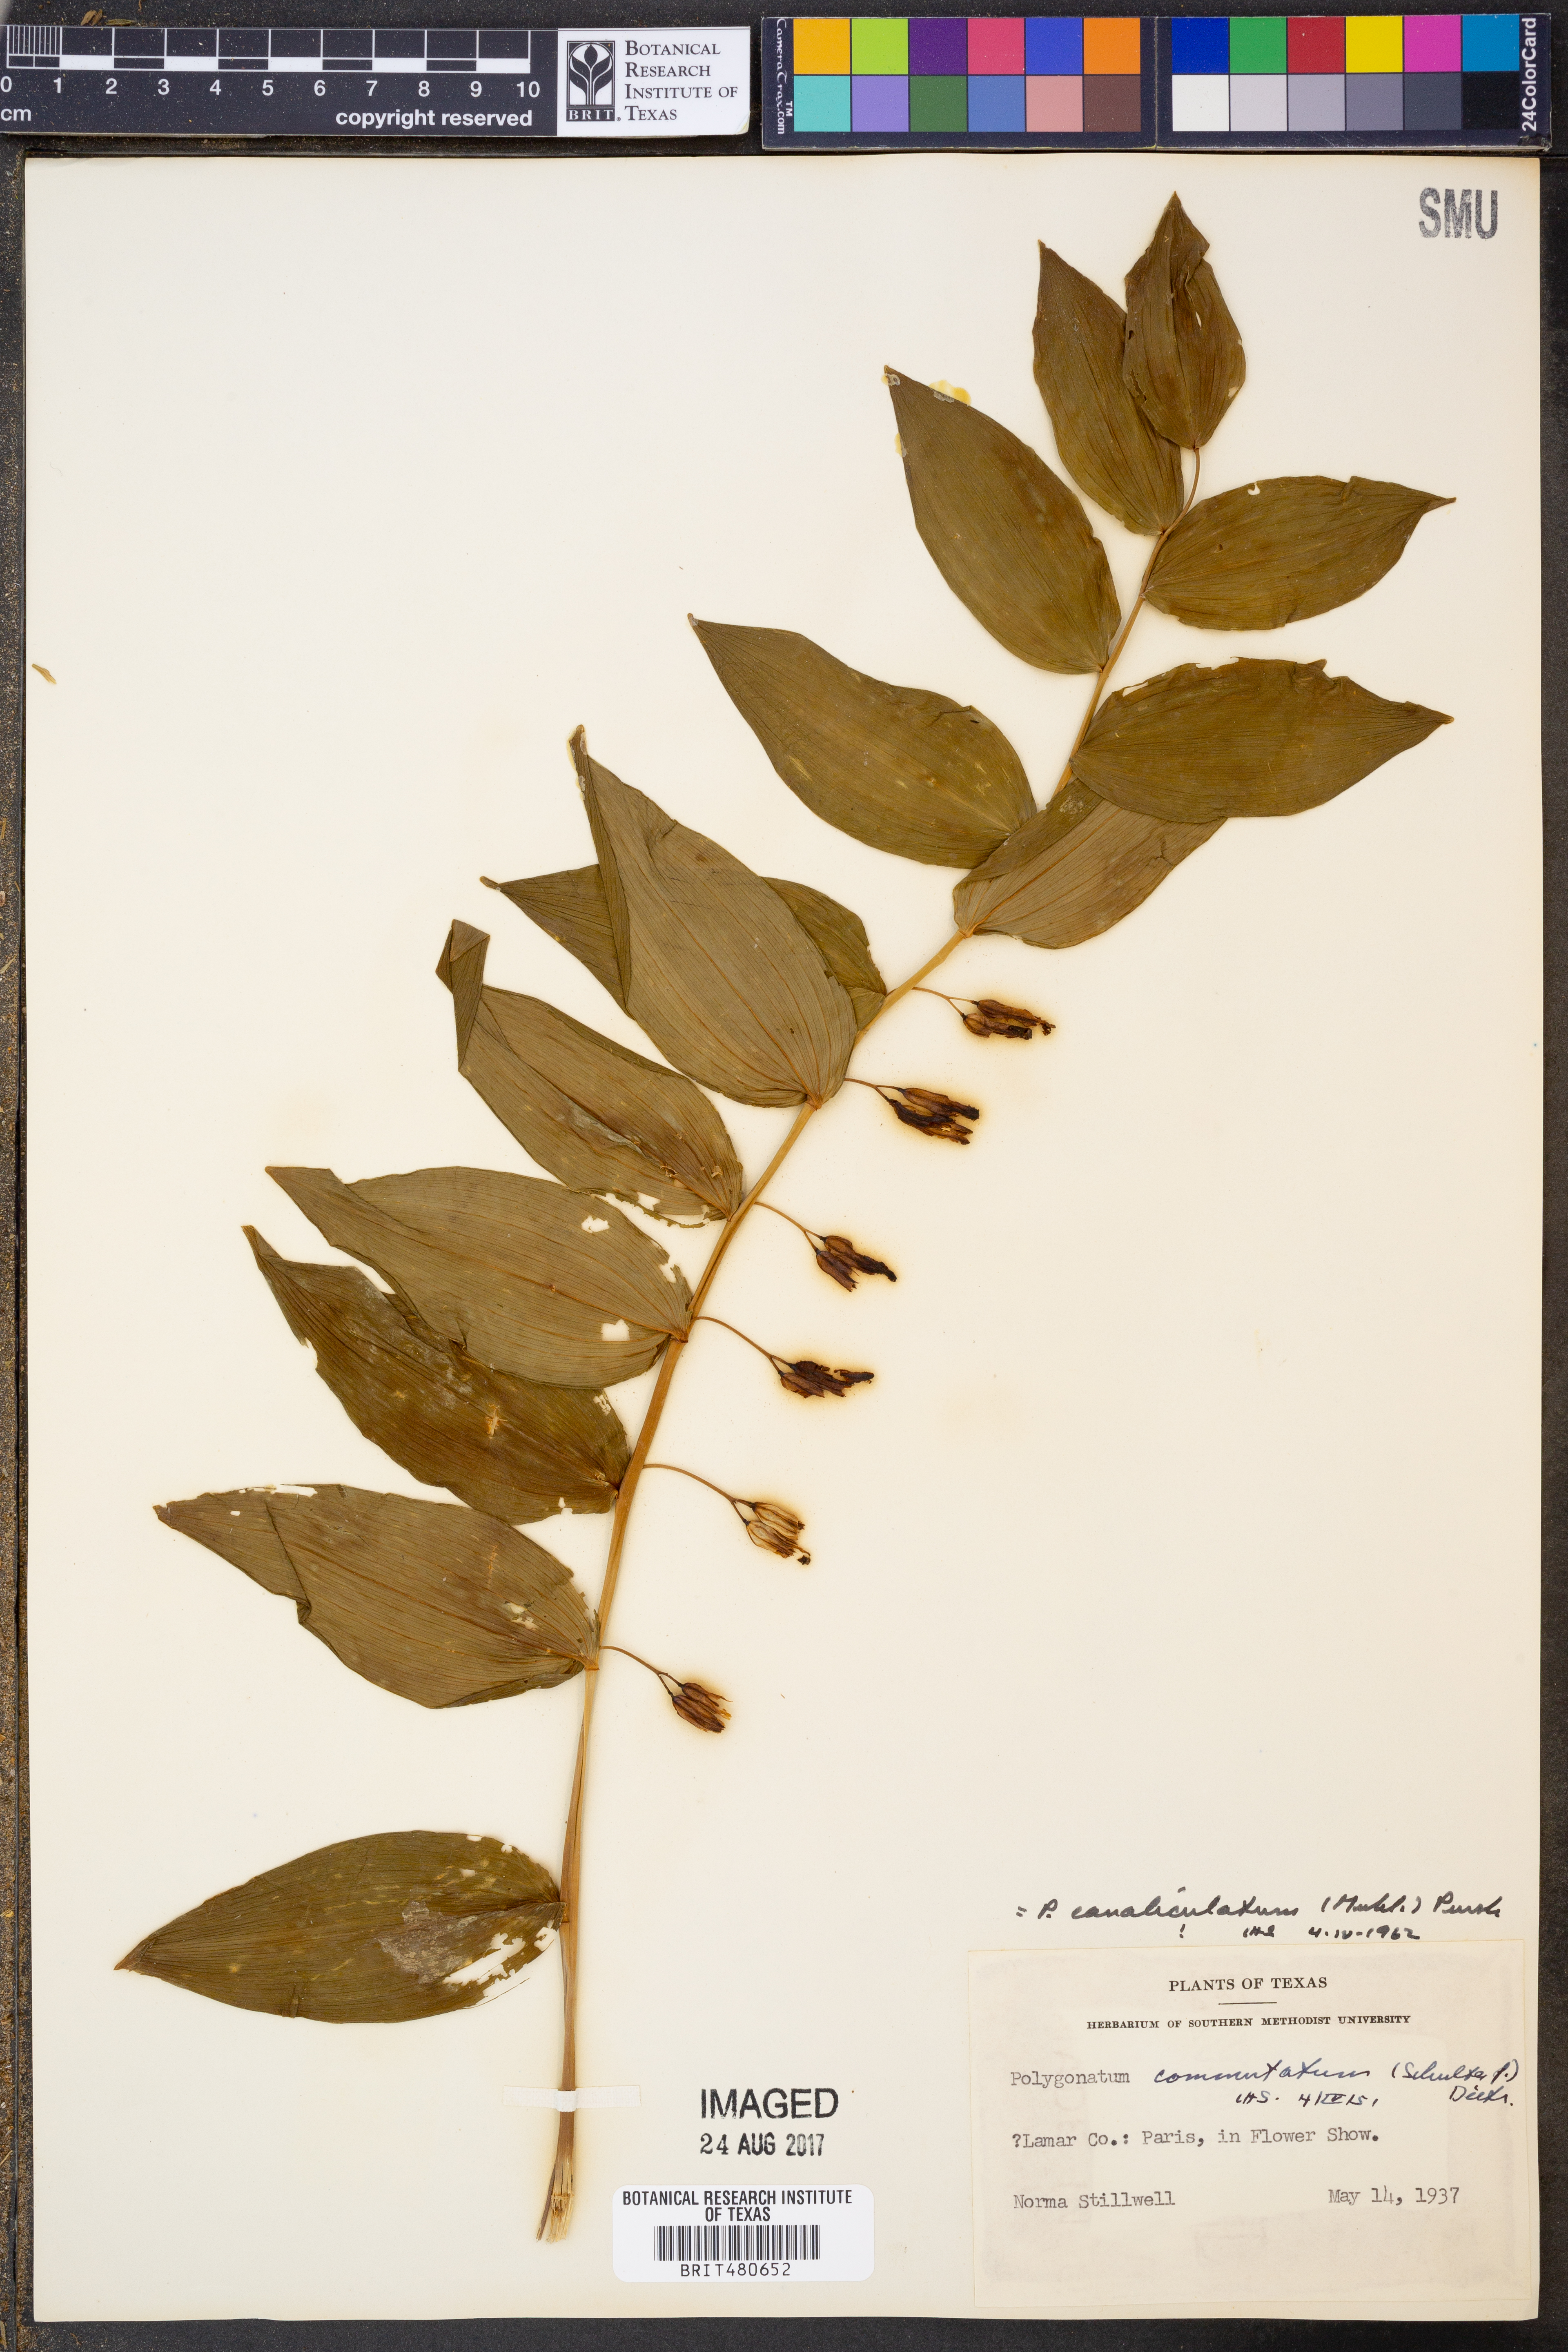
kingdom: Plantae
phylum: Tracheophyta
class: Liliopsida
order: Asparagales
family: Asparagaceae
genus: Polygonatum
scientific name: Polygonatum biflorum
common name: American solomon's-seal
